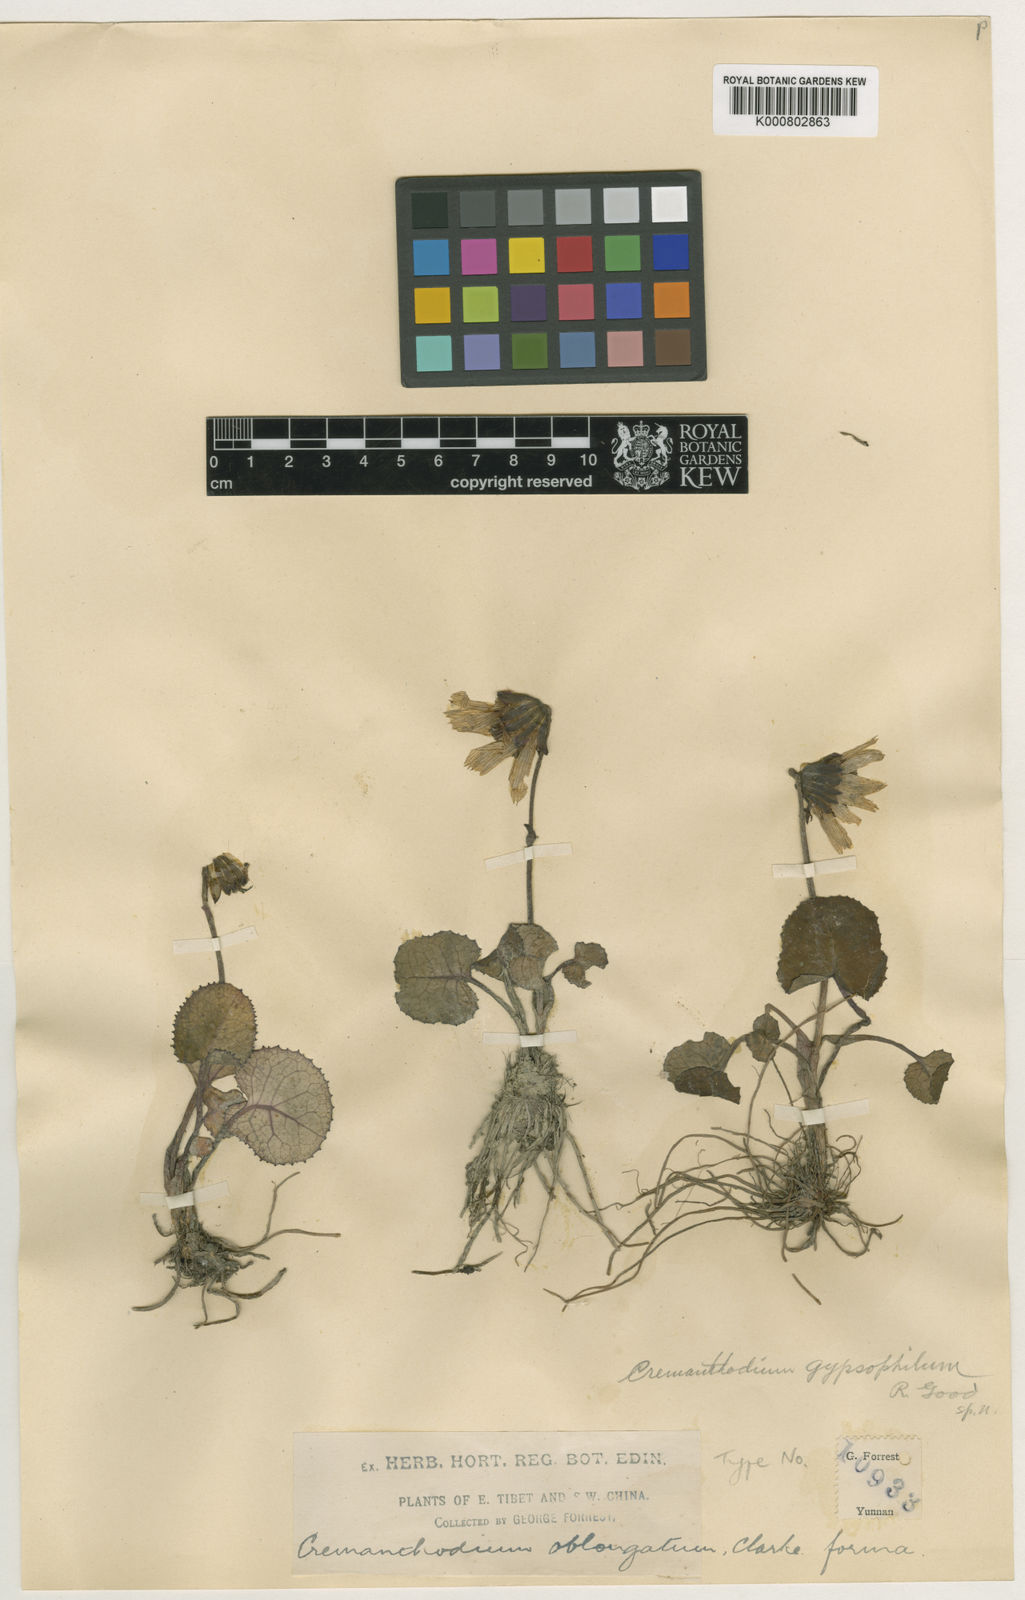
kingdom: Plantae
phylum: Tracheophyta
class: Magnoliopsida
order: Asterales
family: Asteraceae
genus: Cremanthodium
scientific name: Cremanthodium principis
